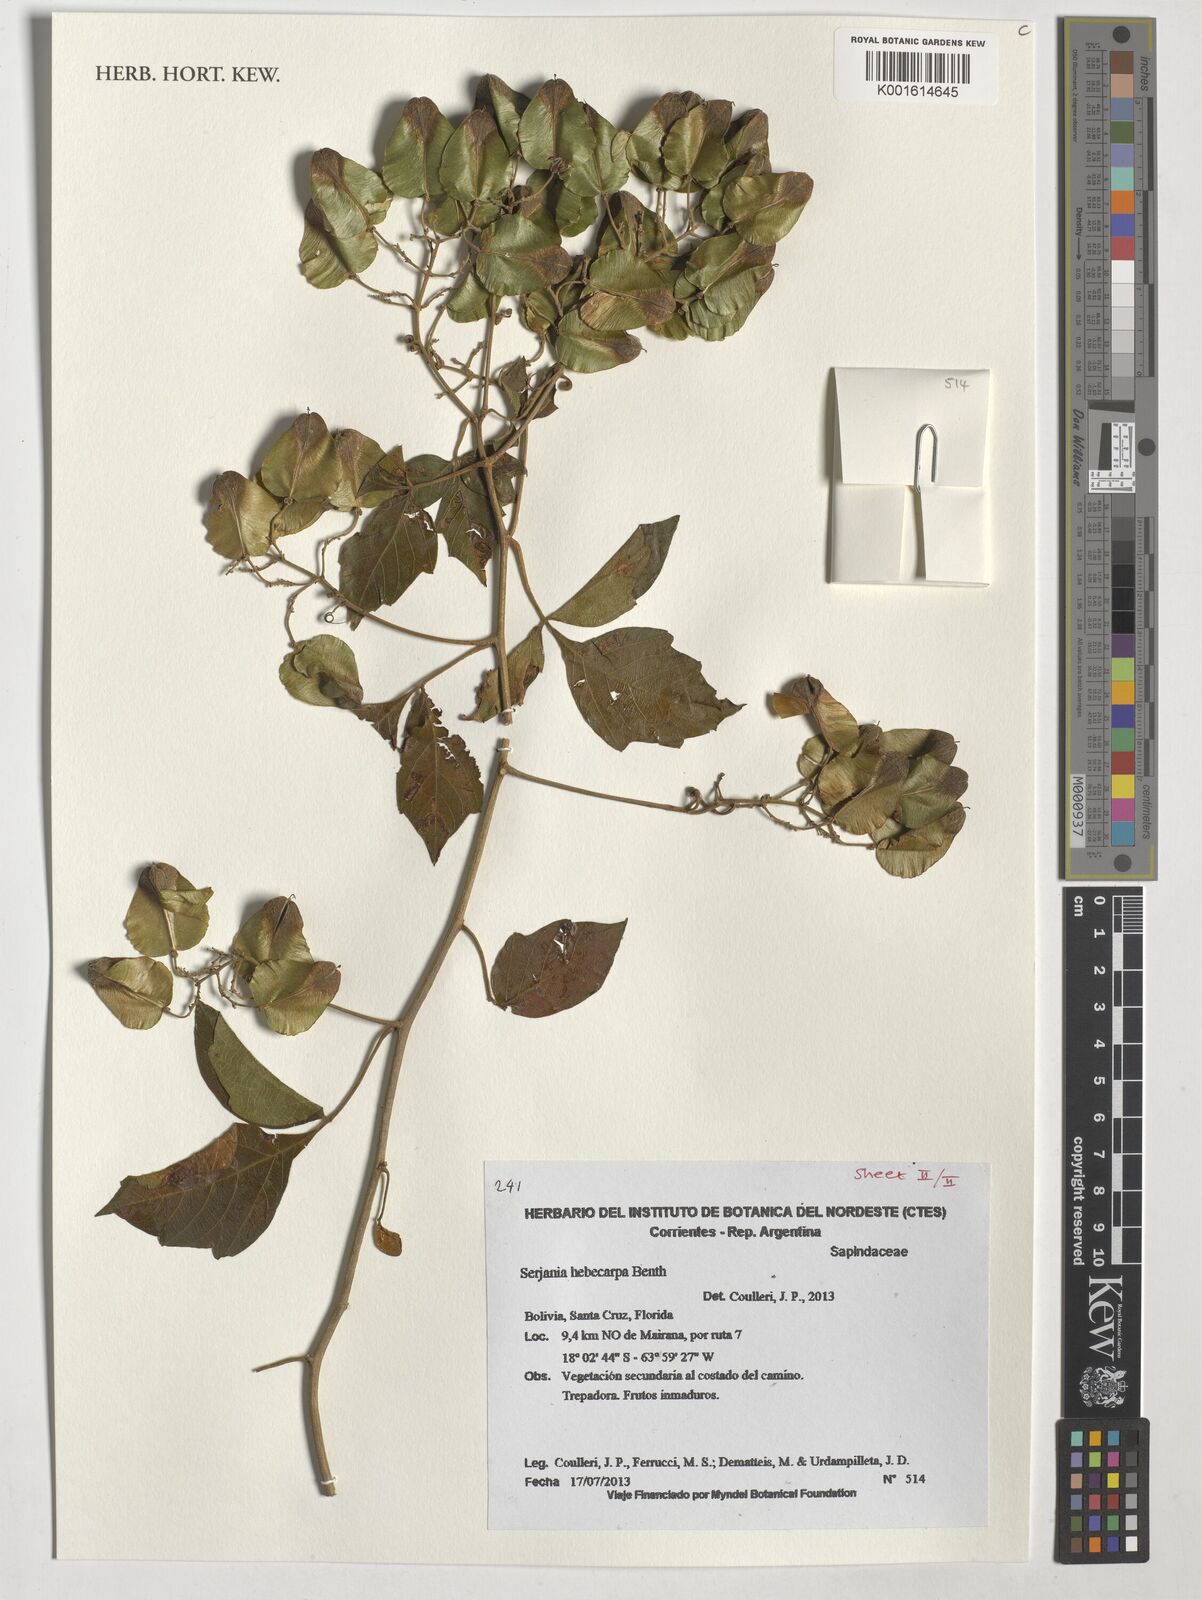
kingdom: Plantae
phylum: Tracheophyta
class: Magnoliopsida
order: Sapindales
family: Sapindaceae
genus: Serjania
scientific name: Serjania hebecarpa
